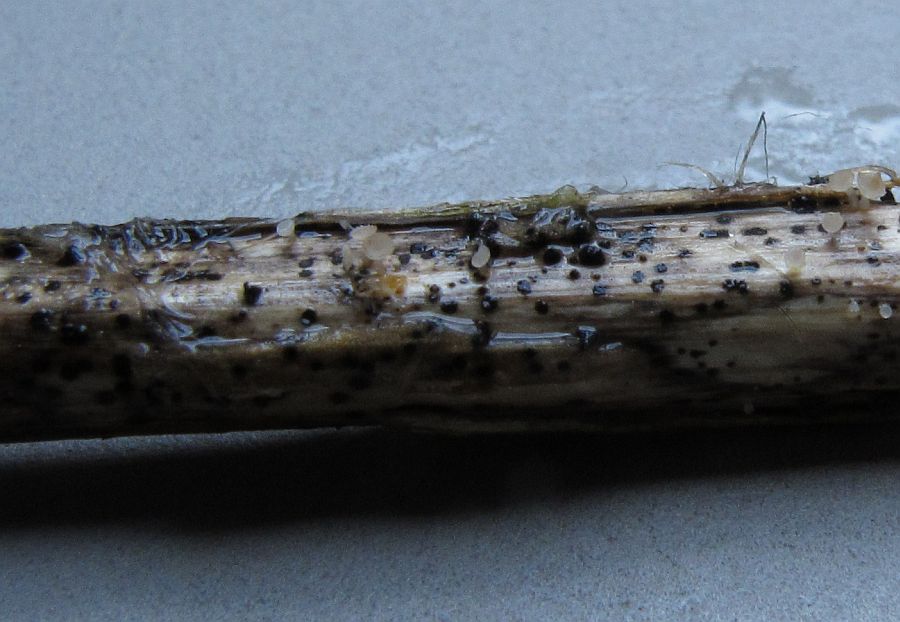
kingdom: Fungi
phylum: Ascomycota
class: Leotiomycetes
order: Helotiales
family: Helotiaceae
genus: Cyathicula
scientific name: Cyathicula cyathoidea
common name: pokal-stilkskive
